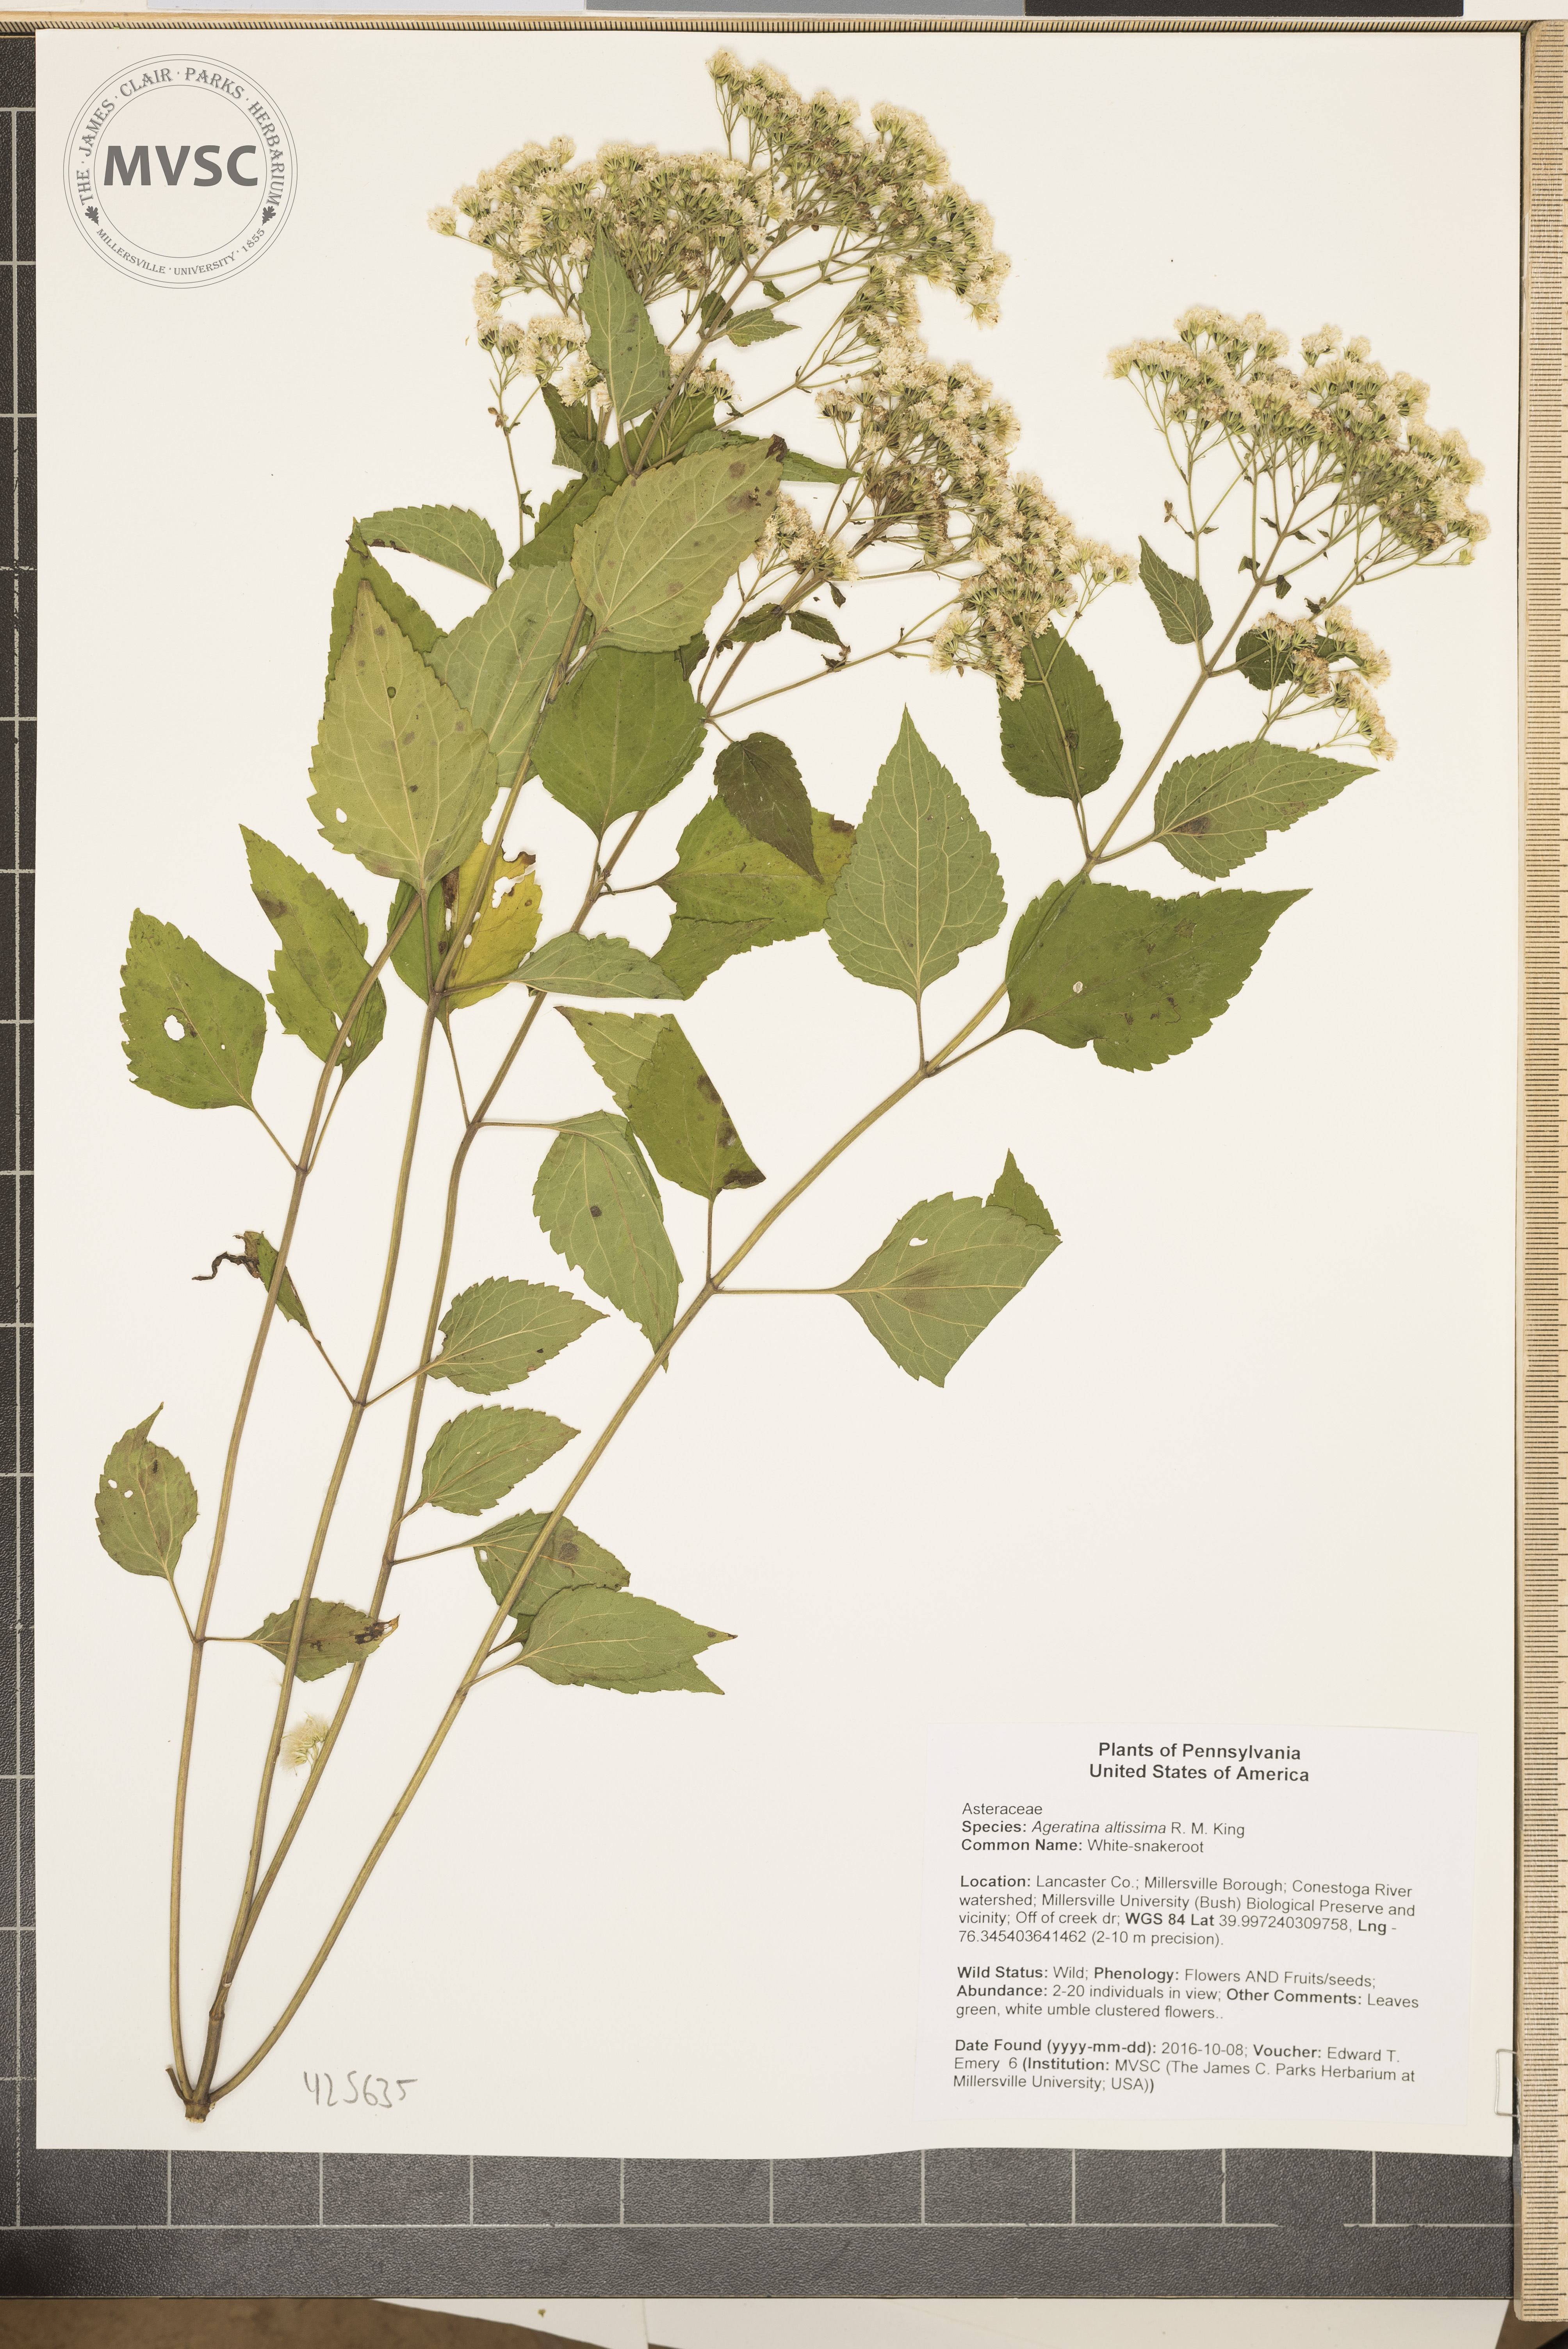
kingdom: Plantae
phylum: Tracheophyta
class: Magnoliopsida
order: Asterales
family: Asteraceae
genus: Ageratina
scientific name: Ageratina altissima
